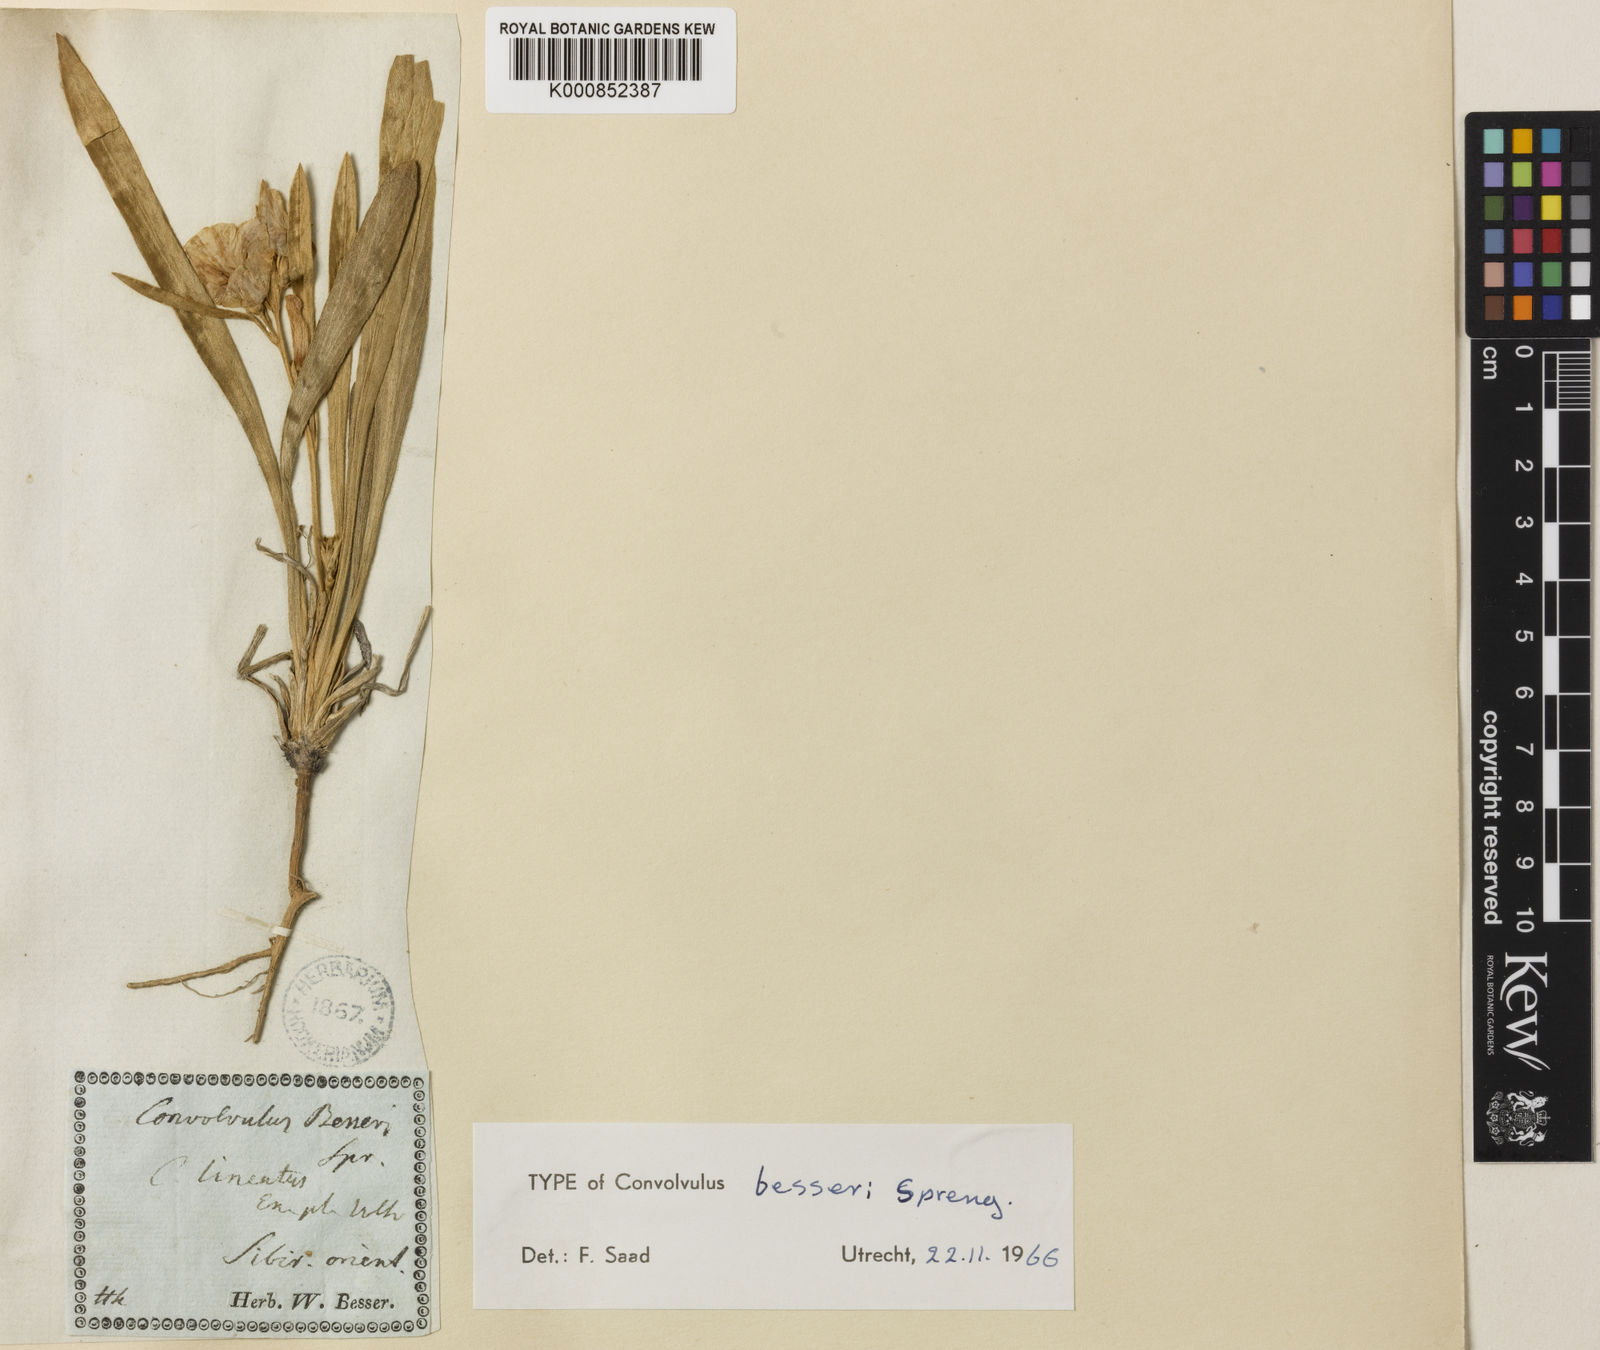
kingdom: Plantae
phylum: Tracheophyta
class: Magnoliopsida
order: Solanales
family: Convolvulaceae
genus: Convolvulus
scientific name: Convolvulus lineatus
